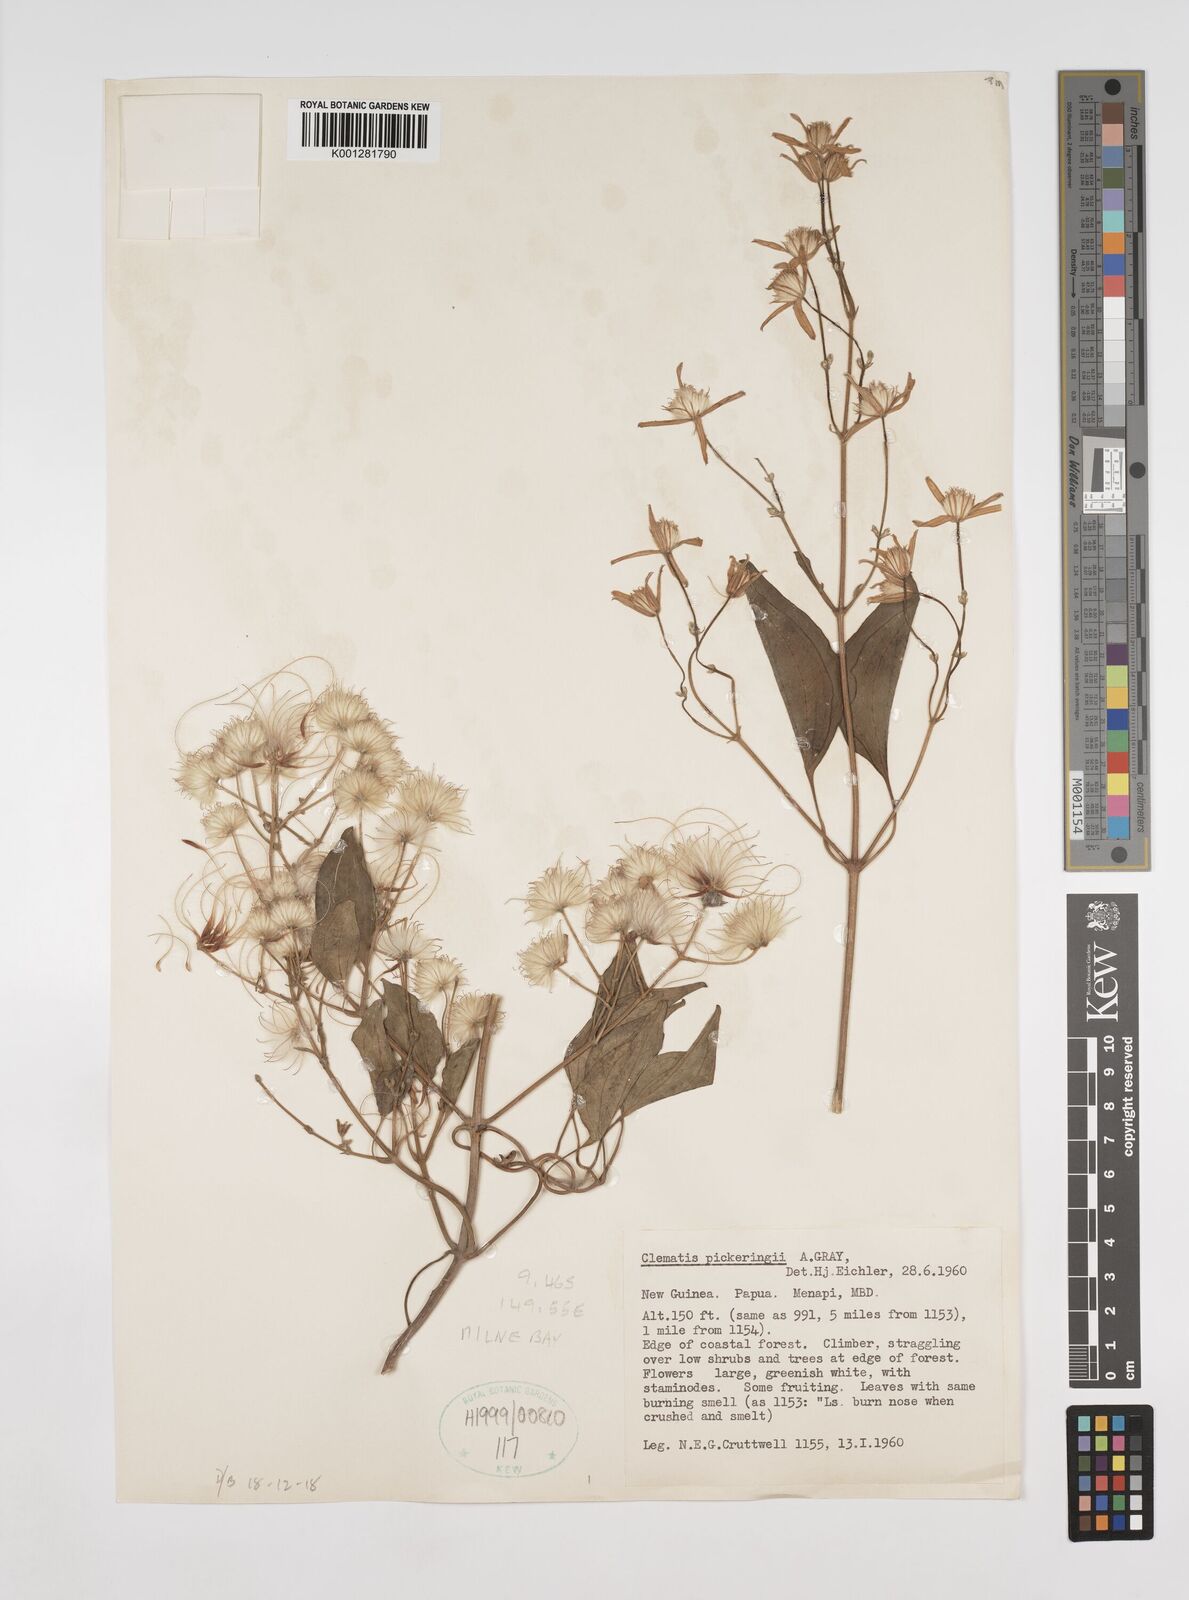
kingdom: Plantae
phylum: Tracheophyta
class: Magnoliopsida
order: Ranunculales
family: Ranunculaceae
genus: Clematis
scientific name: Clematis pickeringii
